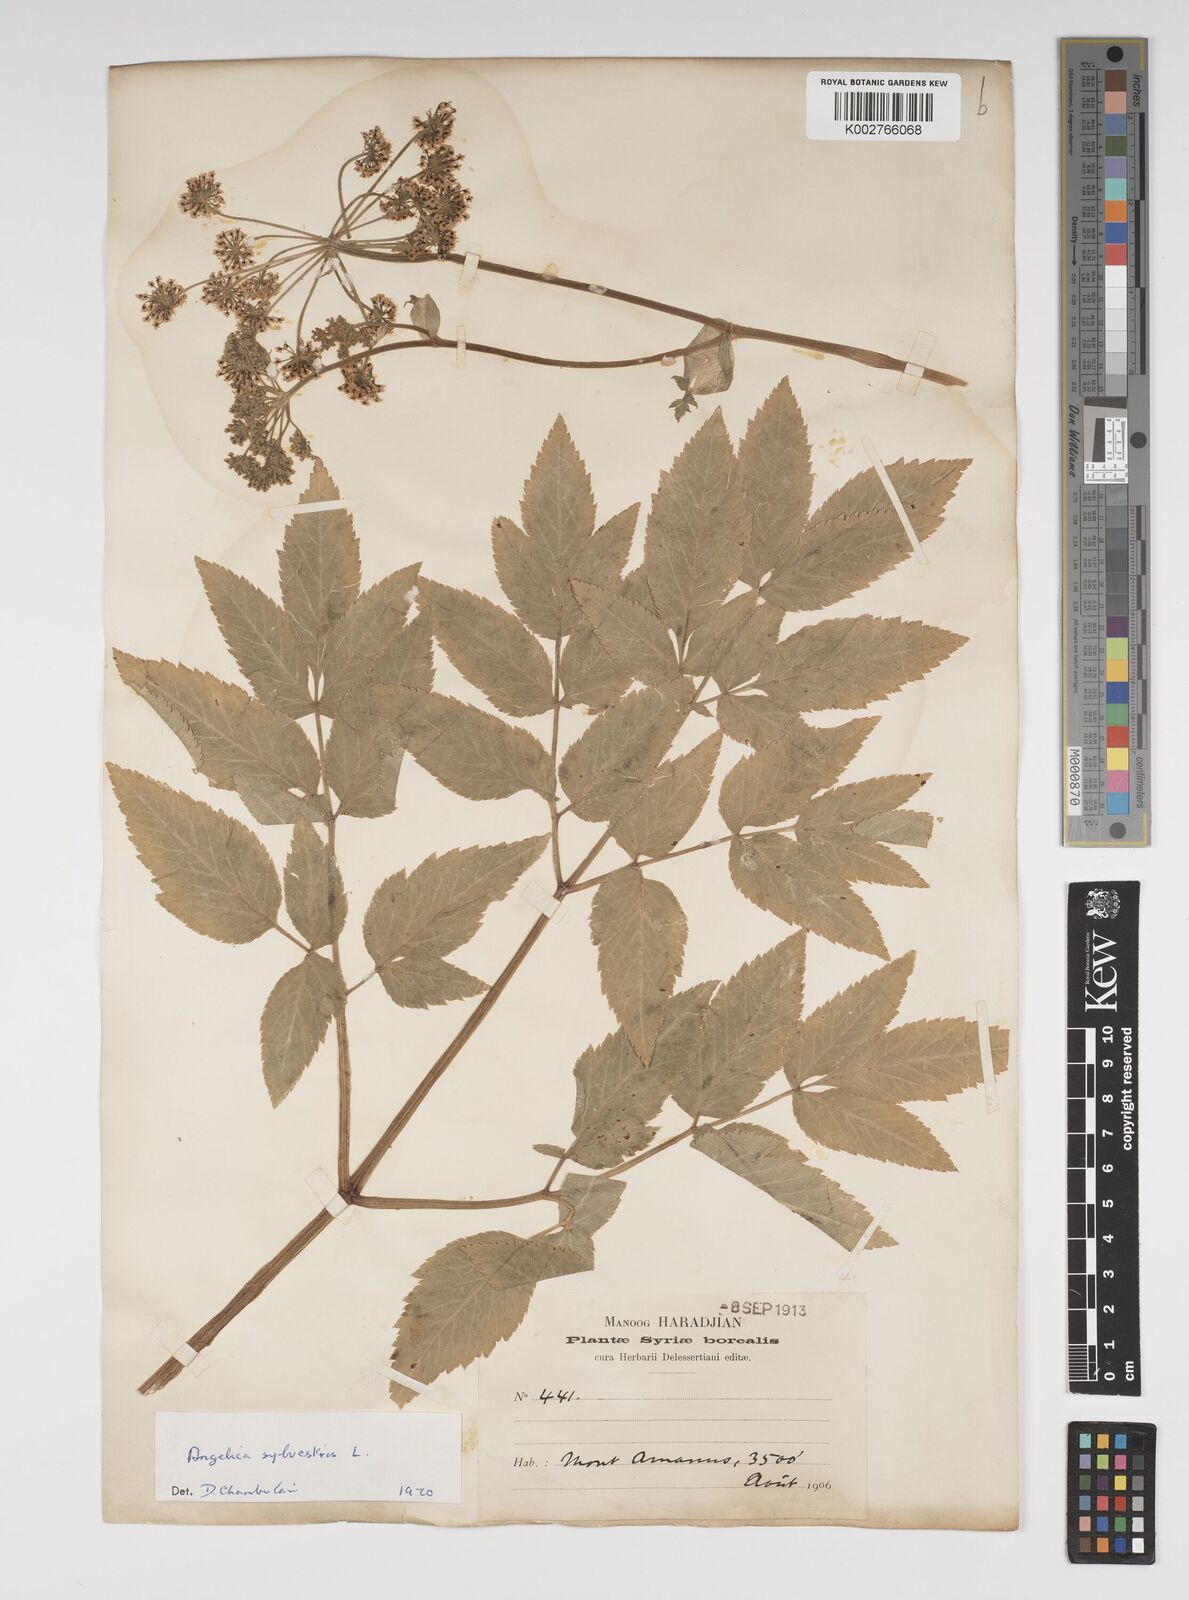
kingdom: Plantae
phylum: Tracheophyta
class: Magnoliopsida
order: Apiales
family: Apiaceae
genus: Angelica
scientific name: Angelica sylvestris
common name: Wild angelica
